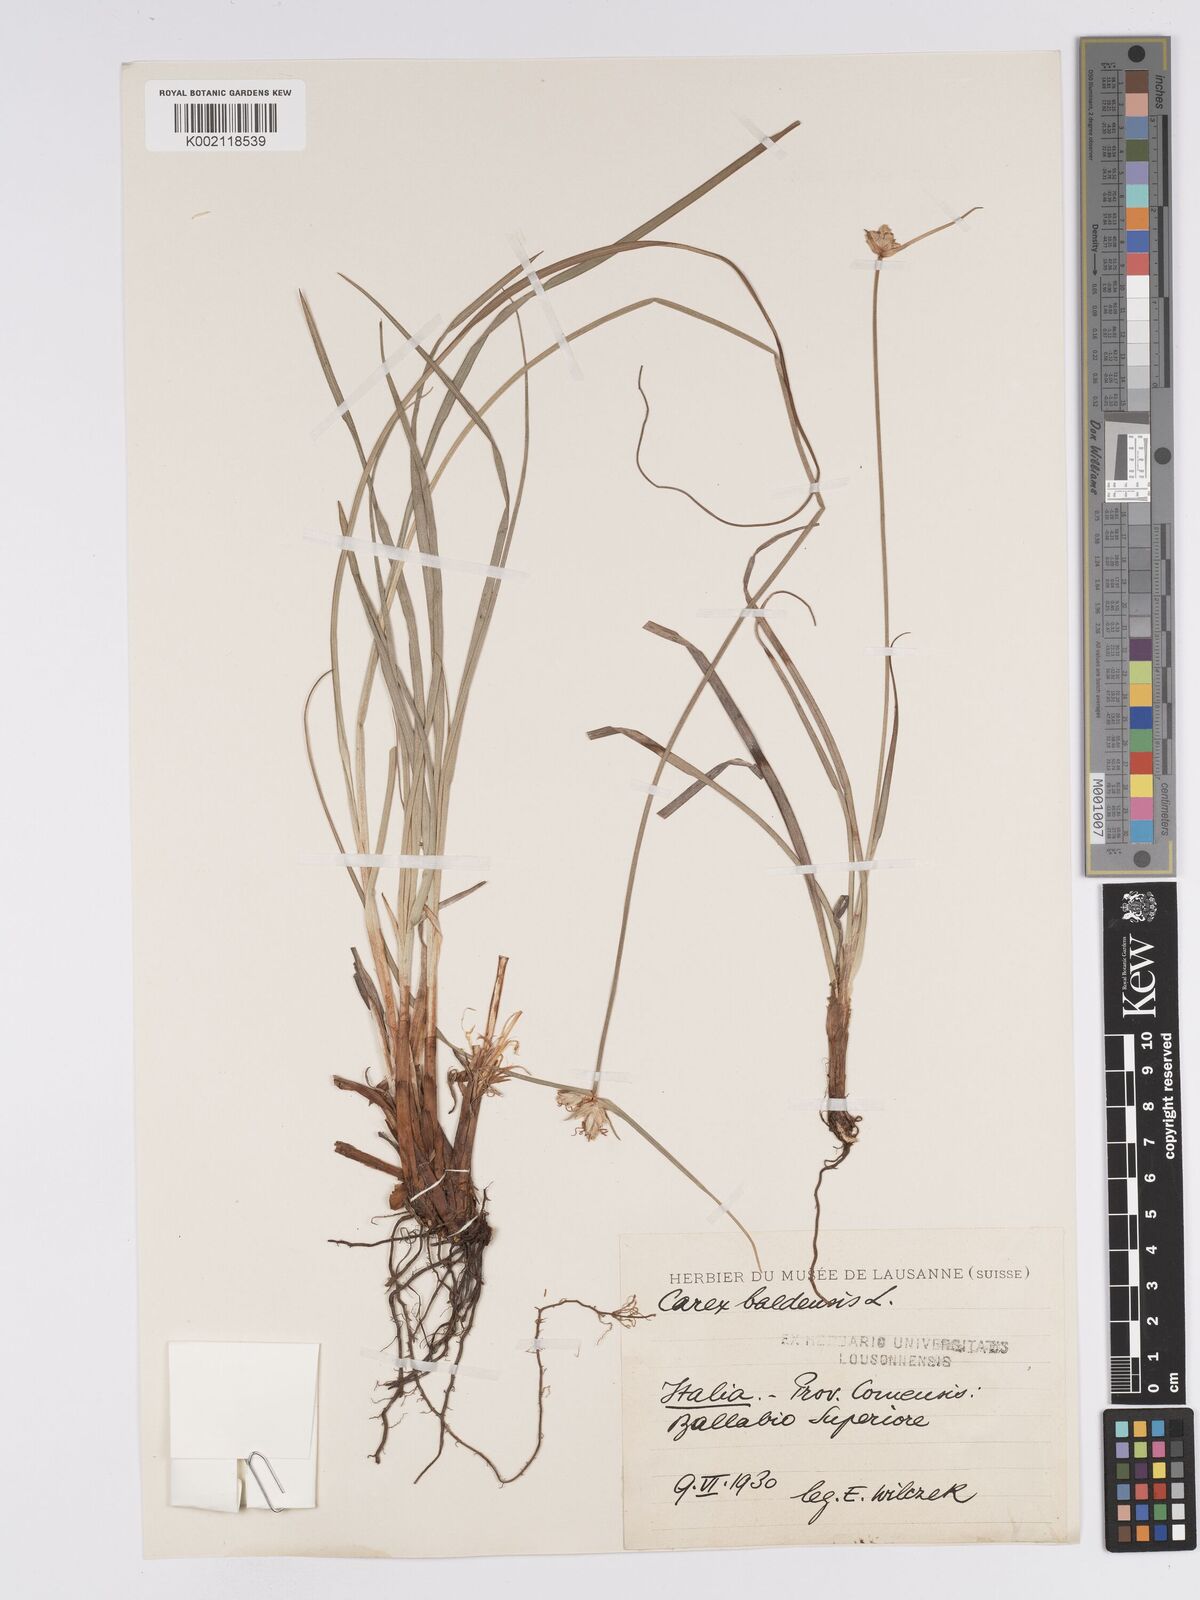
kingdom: Plantae
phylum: Tracheophyta
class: Liliopsida
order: Poales
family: Cyperaceae
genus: Carex
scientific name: Carex baldensis
